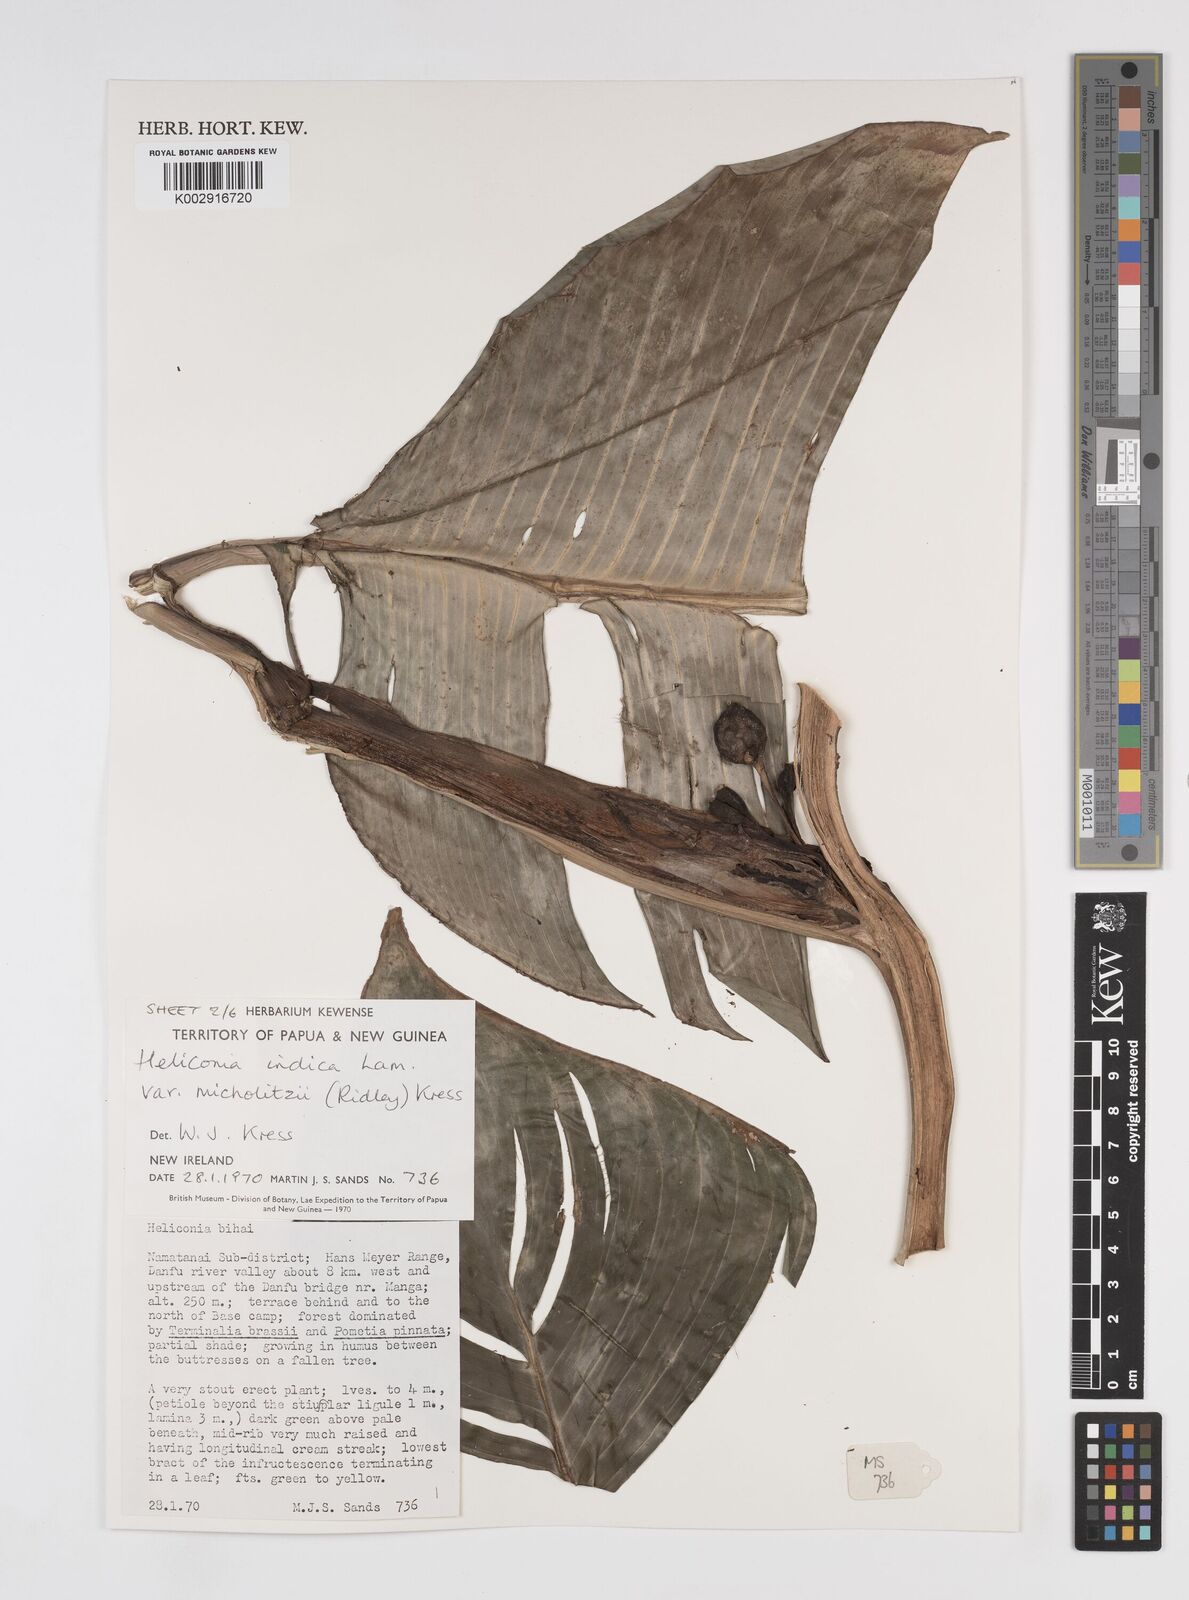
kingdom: Plantae
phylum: Tracheophyta
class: Liliopsida
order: Zingiberales
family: Heliconiaceae
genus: Heliconia
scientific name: Heliconia indica
